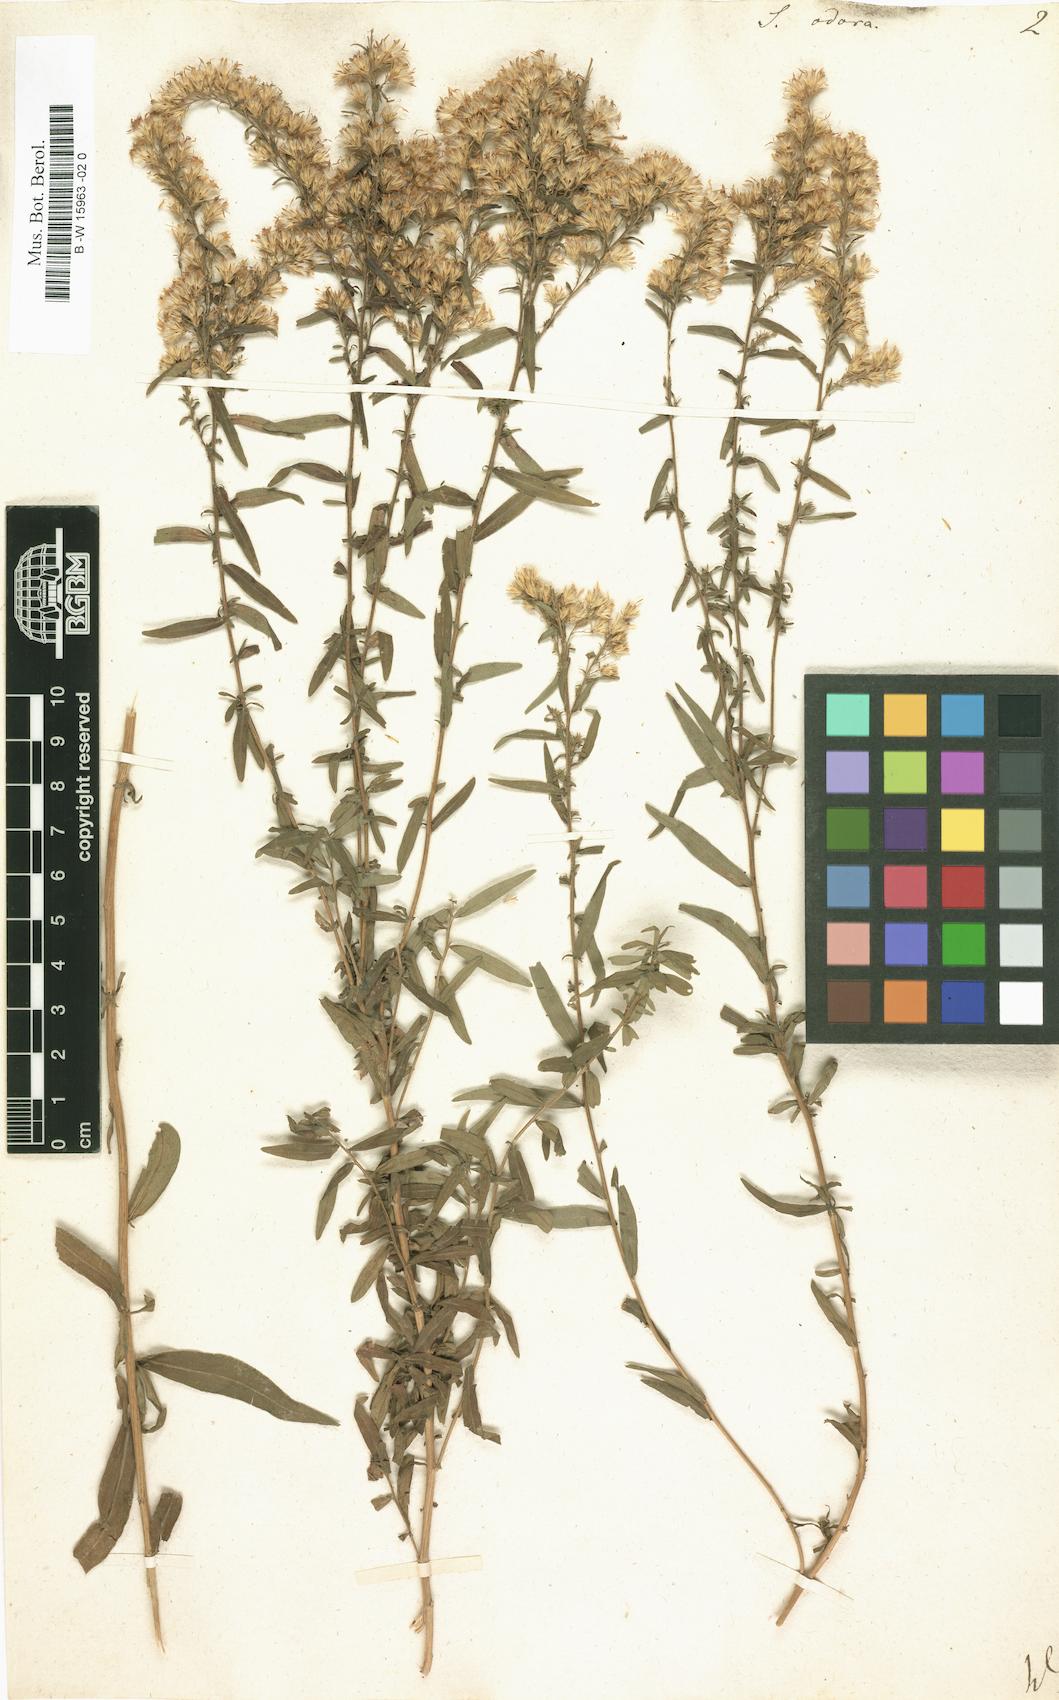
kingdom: Plantae
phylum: Tracheophyta
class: Magnoliopsida
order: Asterales
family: Asteraceae
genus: Solidago
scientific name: Solidago odora
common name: Anise-scented goldenrod
